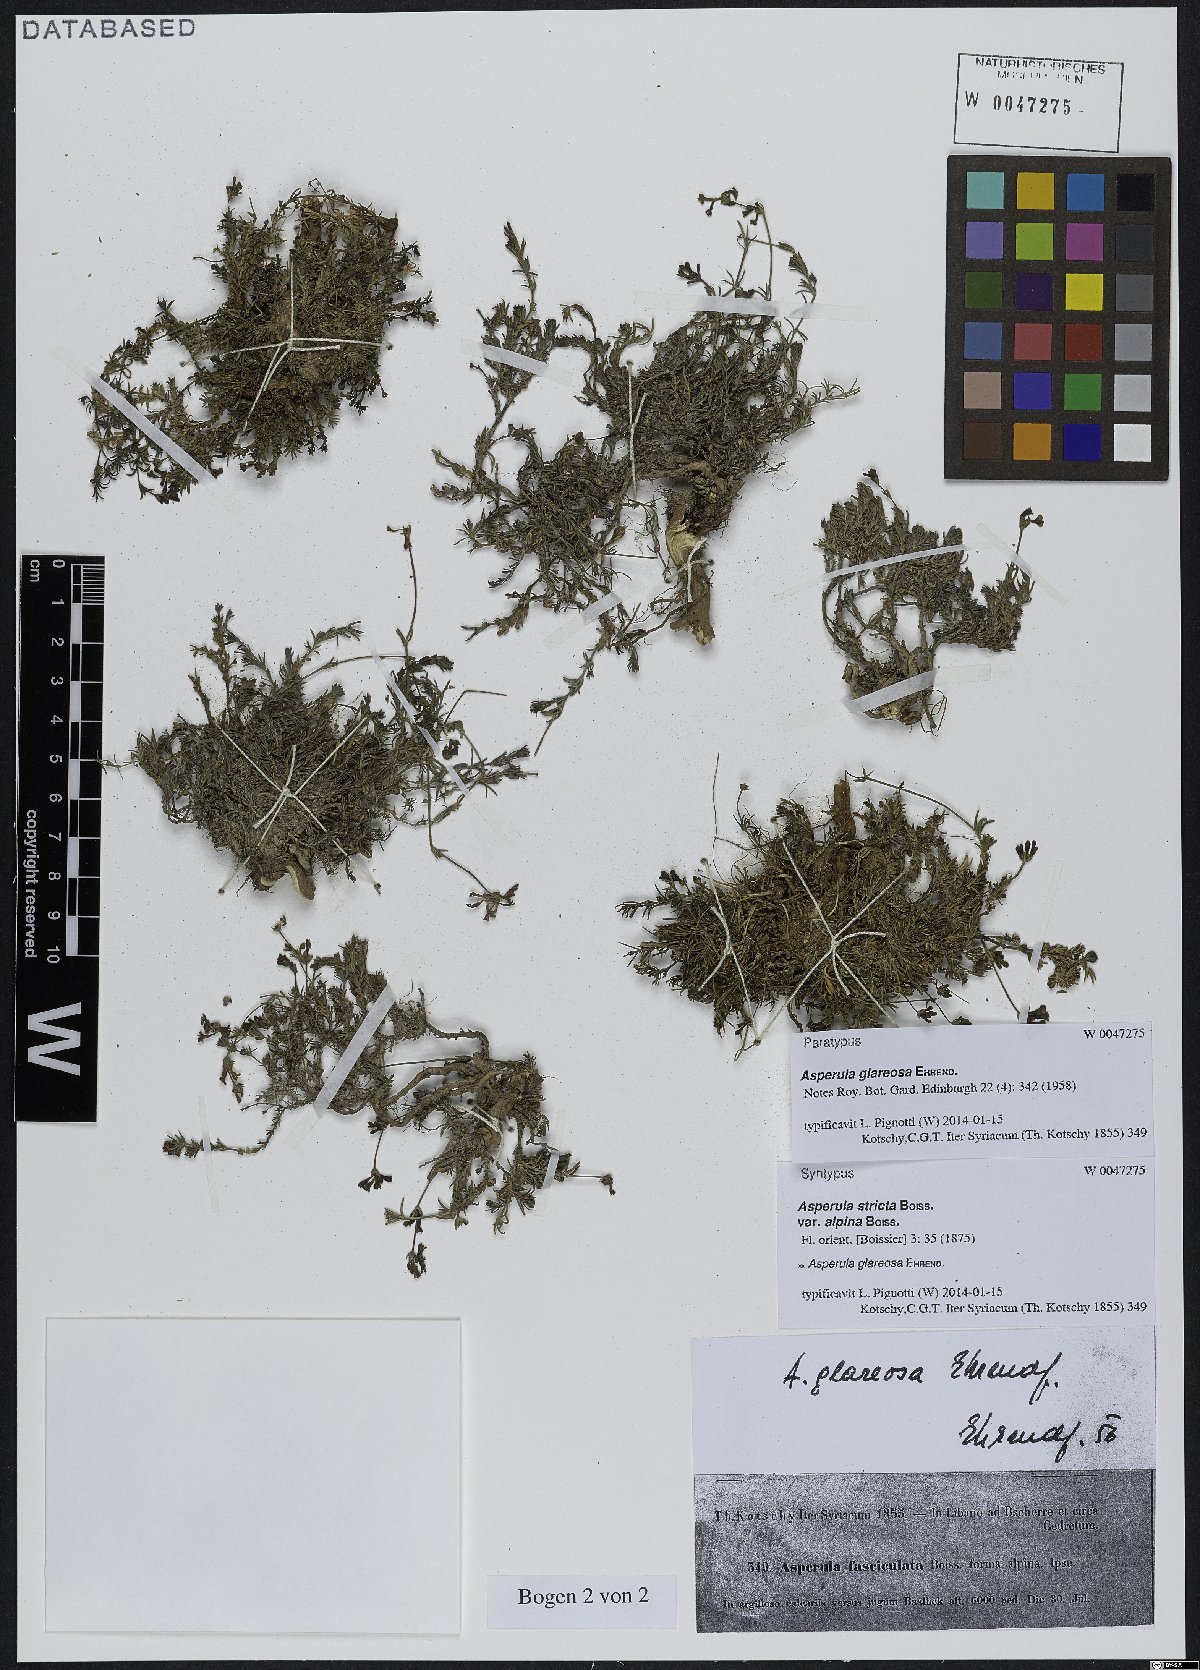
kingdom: Plantae
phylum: Tracheophyta
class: Magnoliopsida
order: Gentianales
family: Rubiaceae
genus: Cynanchica
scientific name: Cynanchica glareosa
